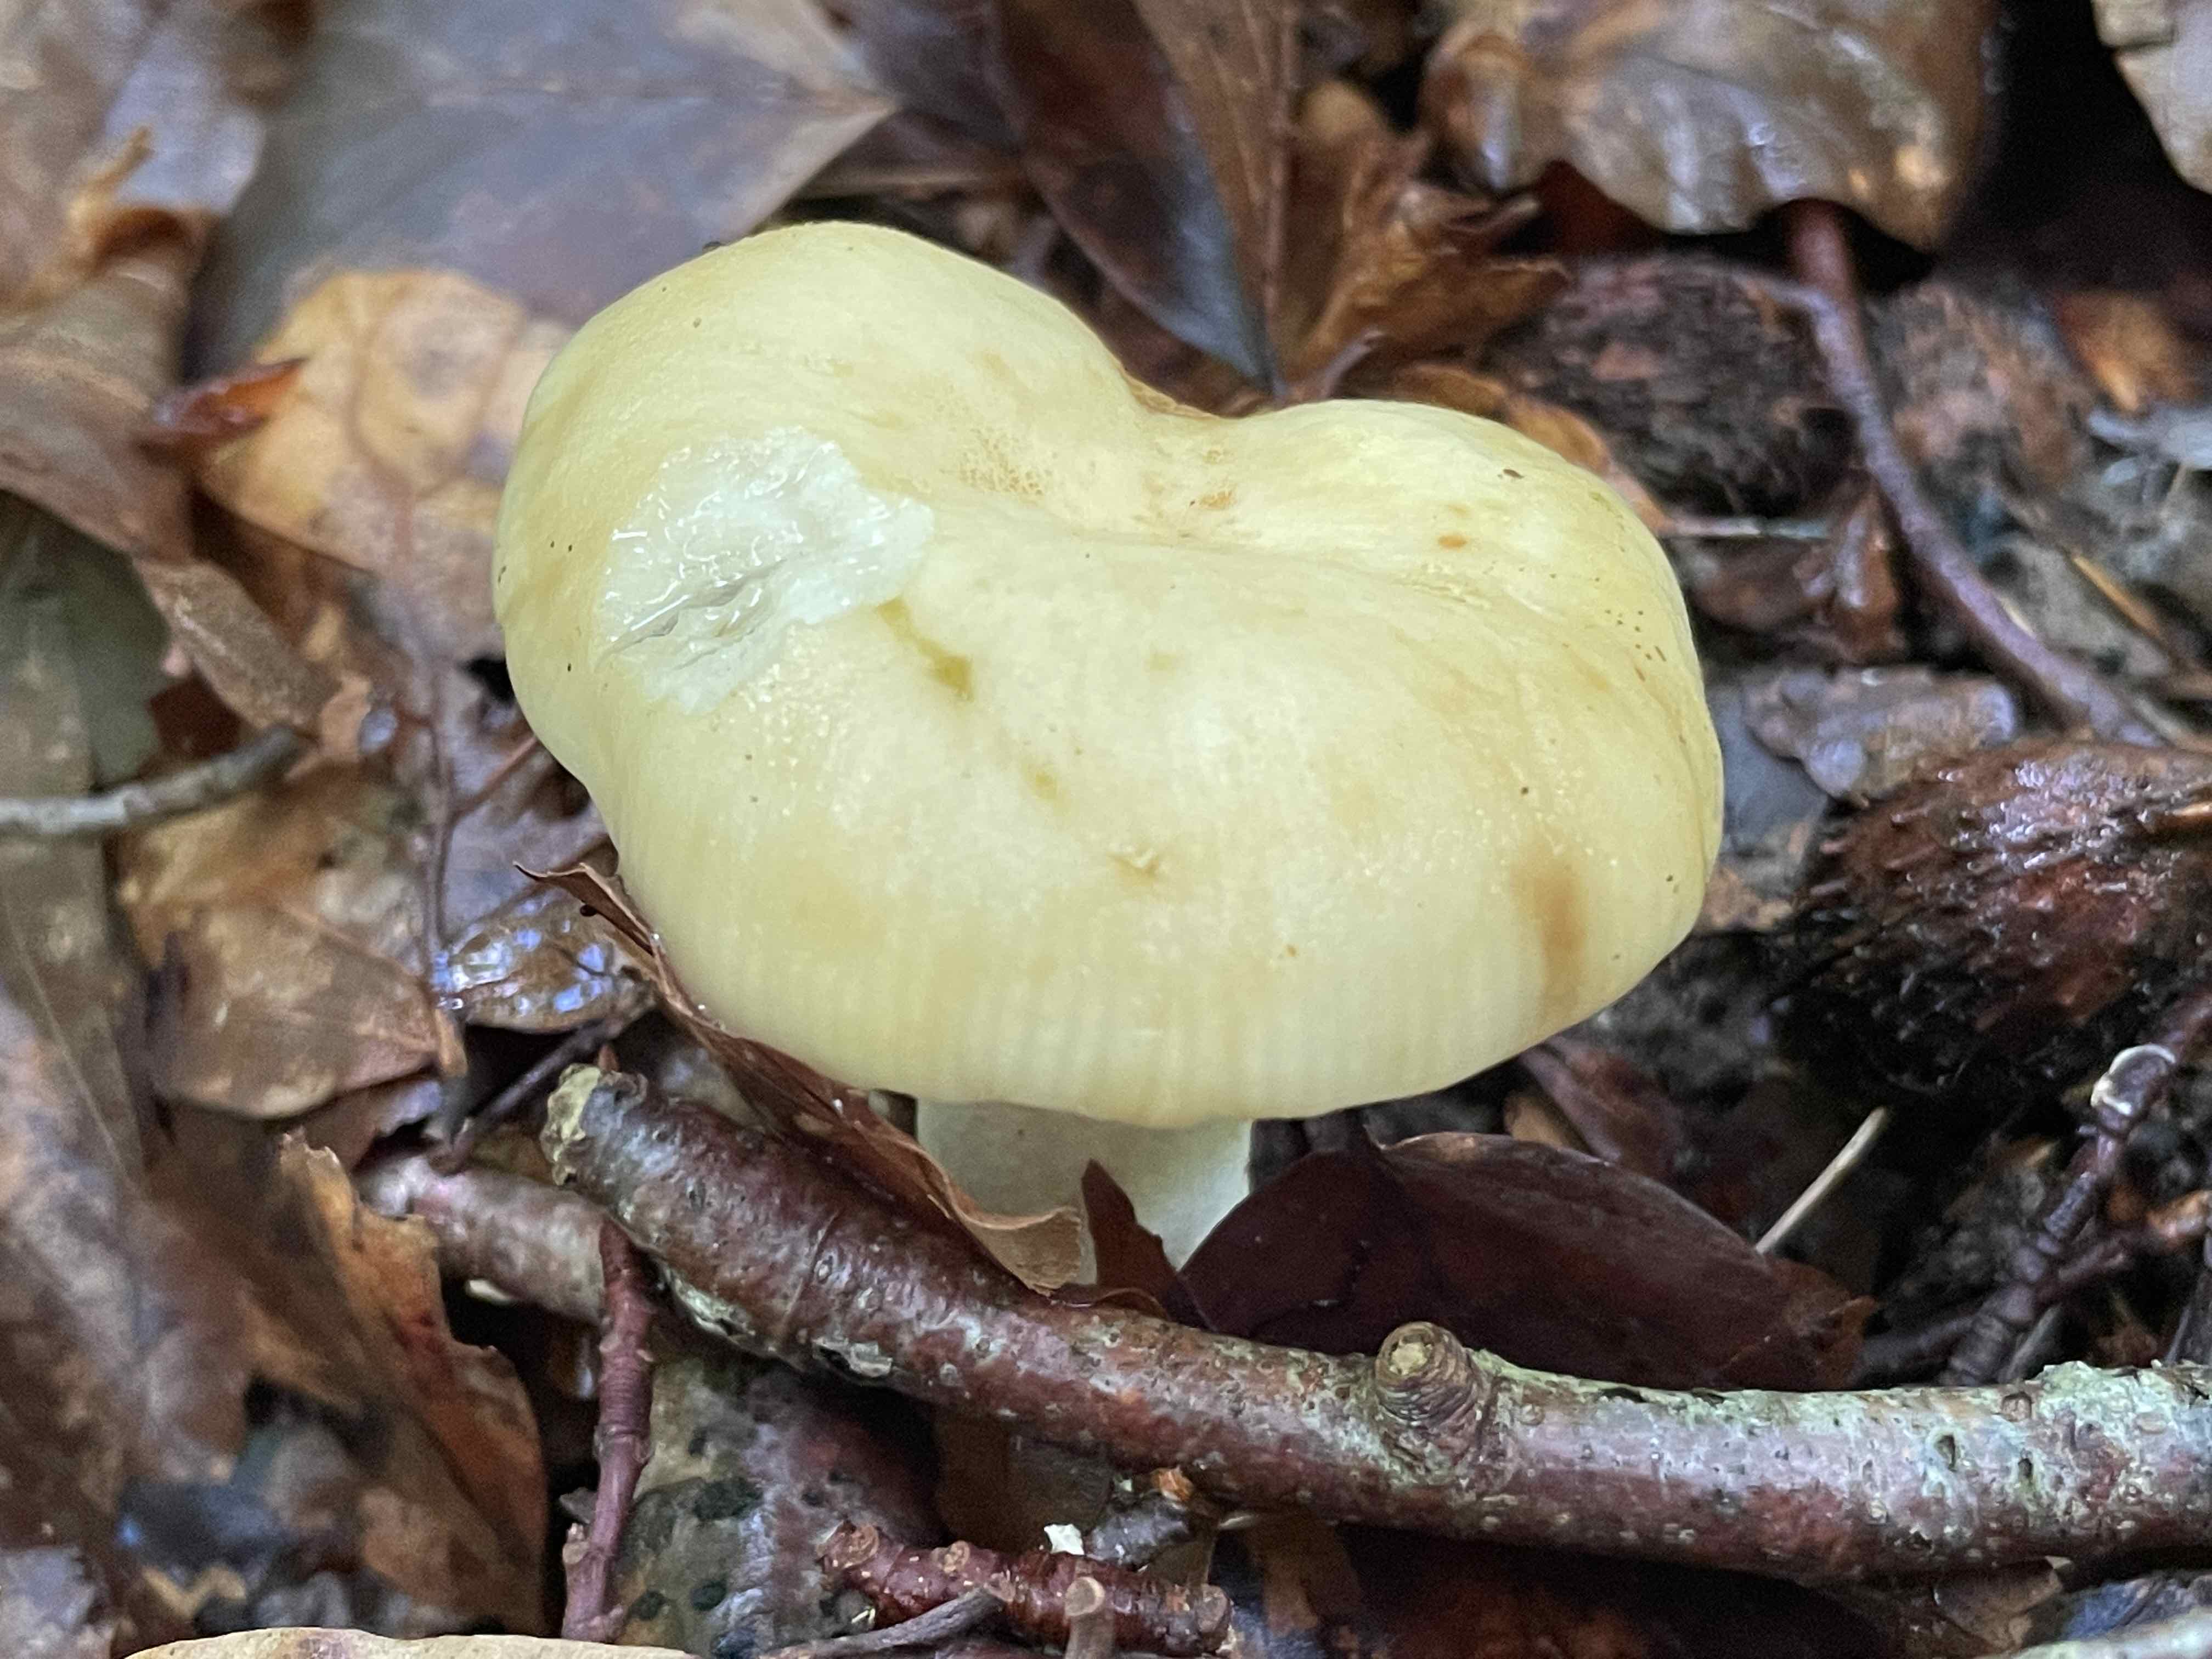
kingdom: Fungi
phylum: Basidiomycota
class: Agaricomycetes
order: Russulales
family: Russulaceae
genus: Russula
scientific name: Russula farinipes
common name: gul kam-skørhat
